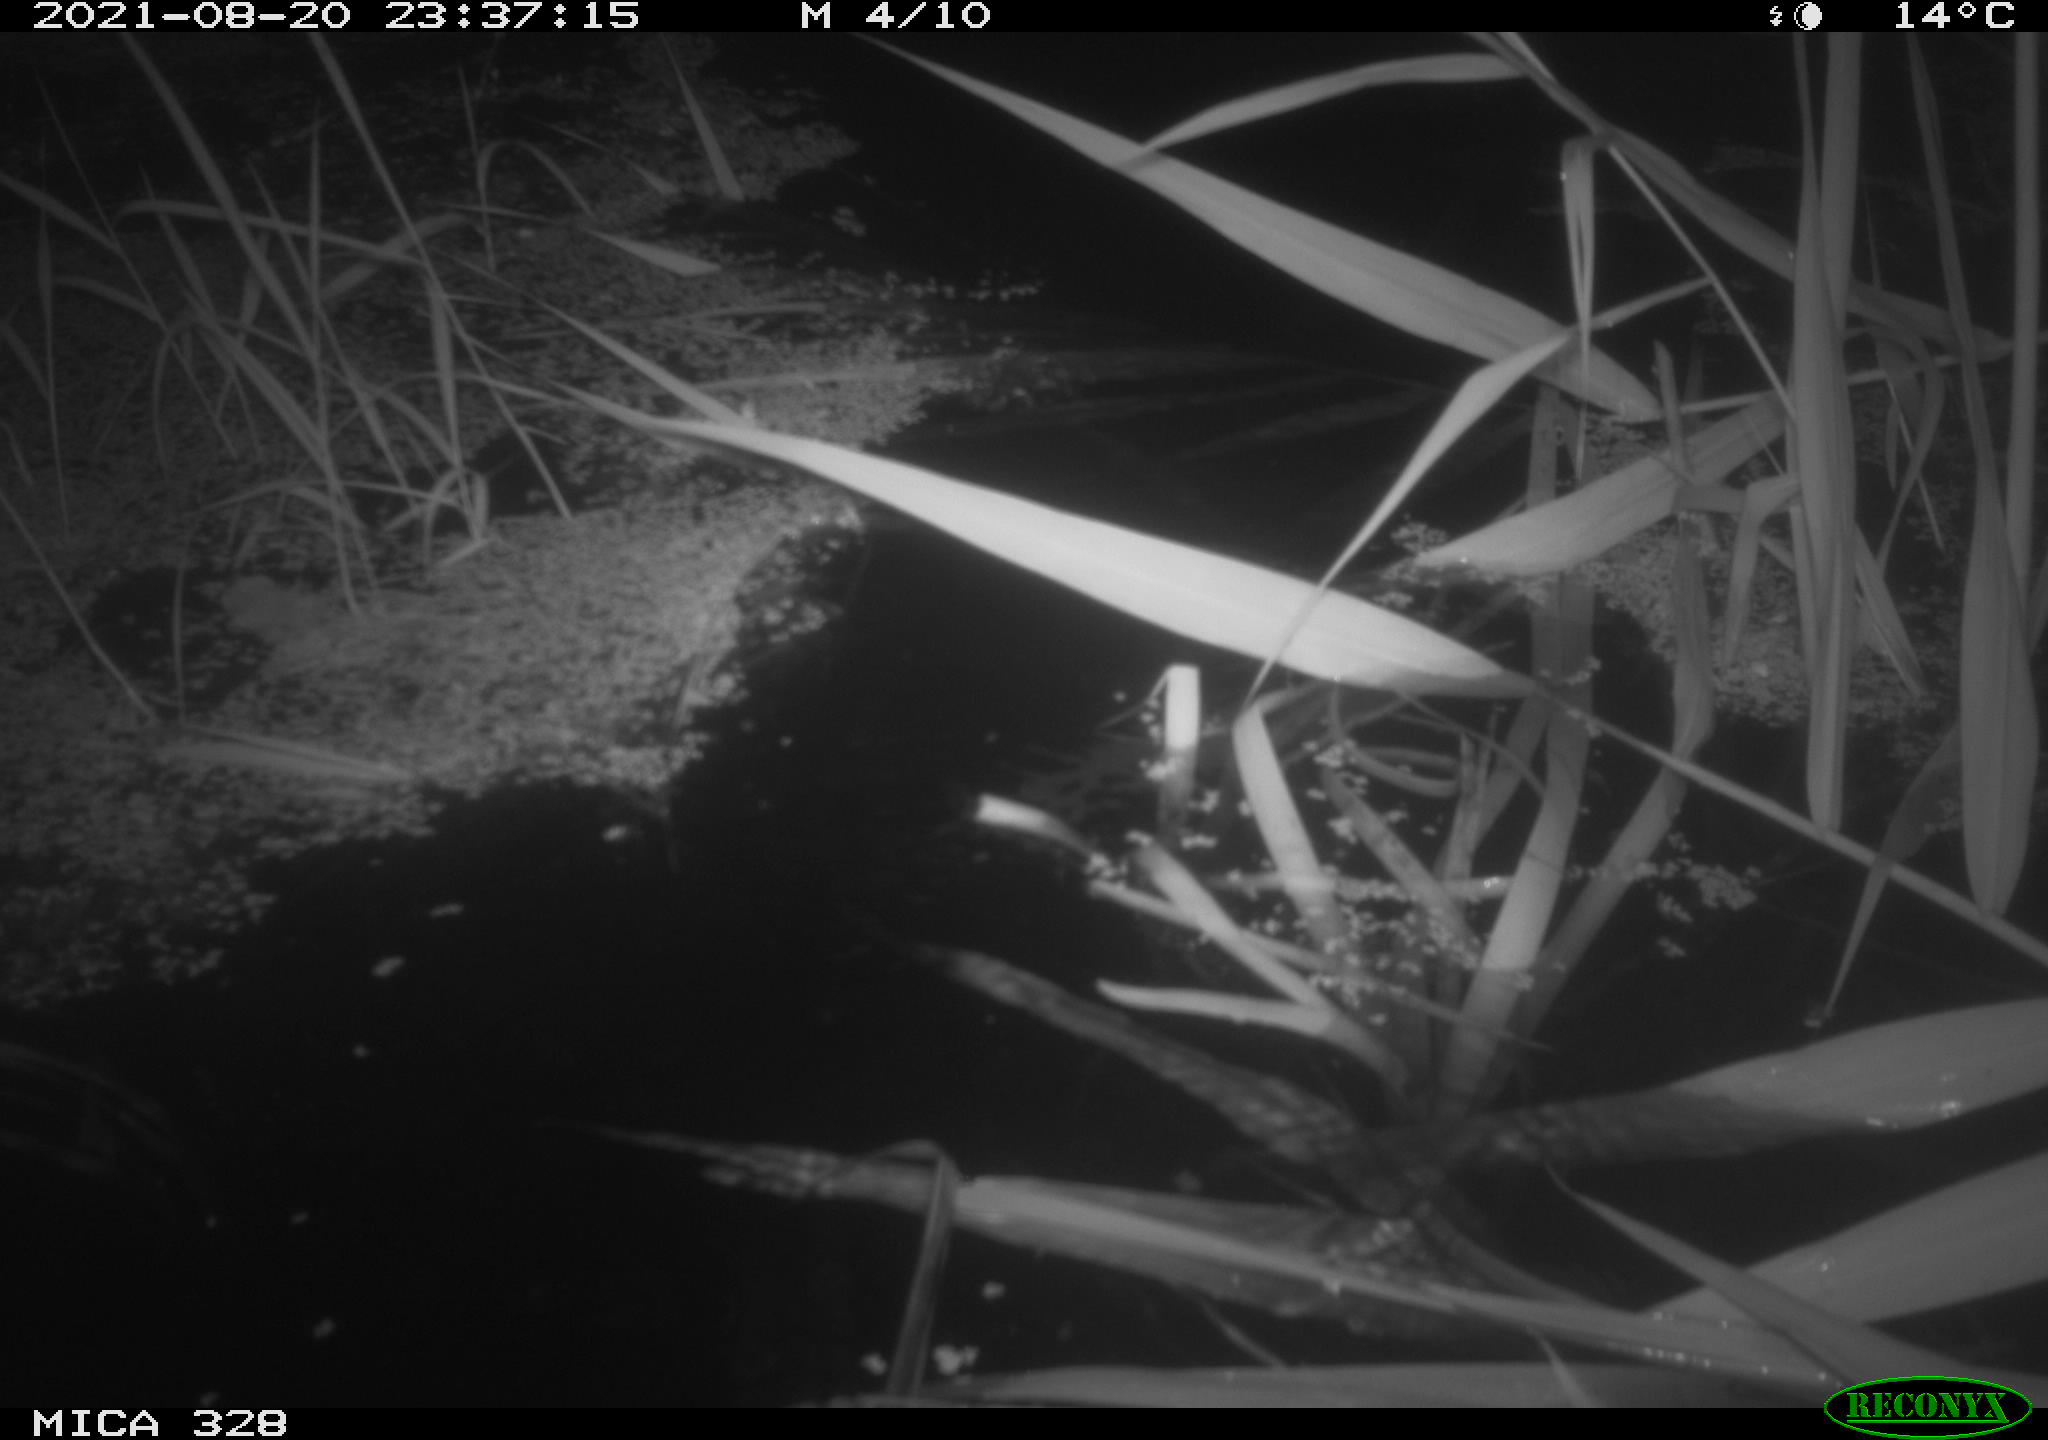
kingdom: Animalia
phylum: Chordata
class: Mammalia
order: Rodentia
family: Cricetidae
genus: Ondatra
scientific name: Ondatra zibethicus
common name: Muskrat
